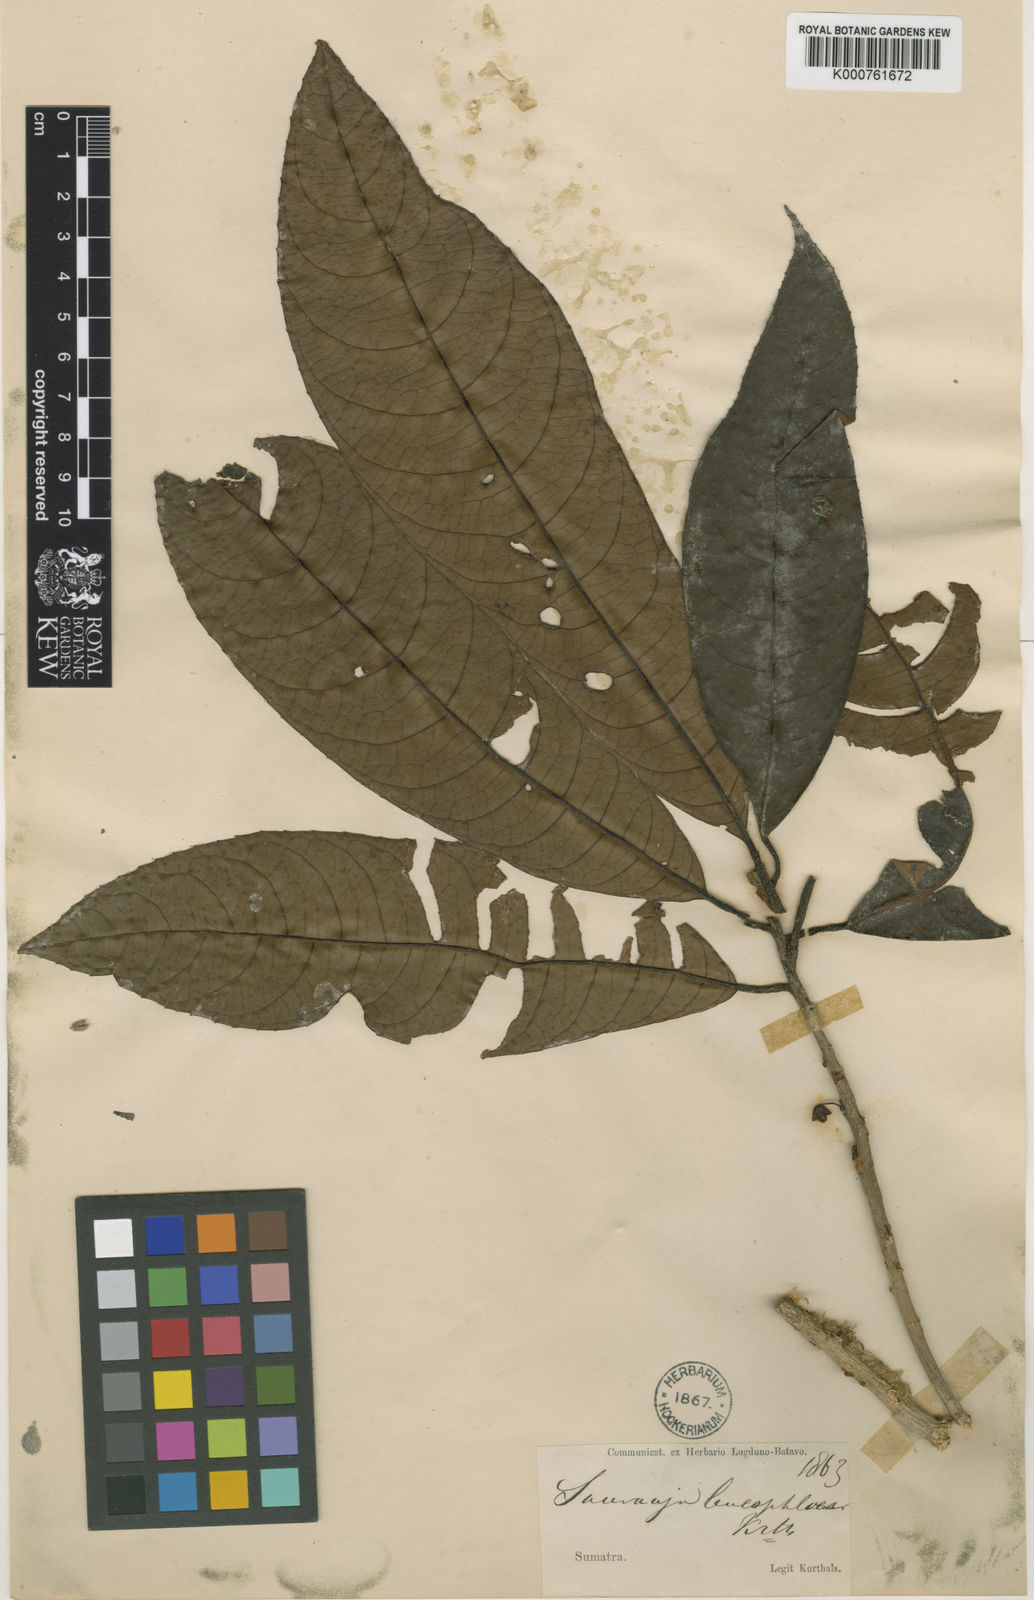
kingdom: Plantae
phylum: Tracheophyta
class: Magnoliopsida
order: Ericales
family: Actinidiaceae
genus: Saurauia
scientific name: Saurauia tristyla
